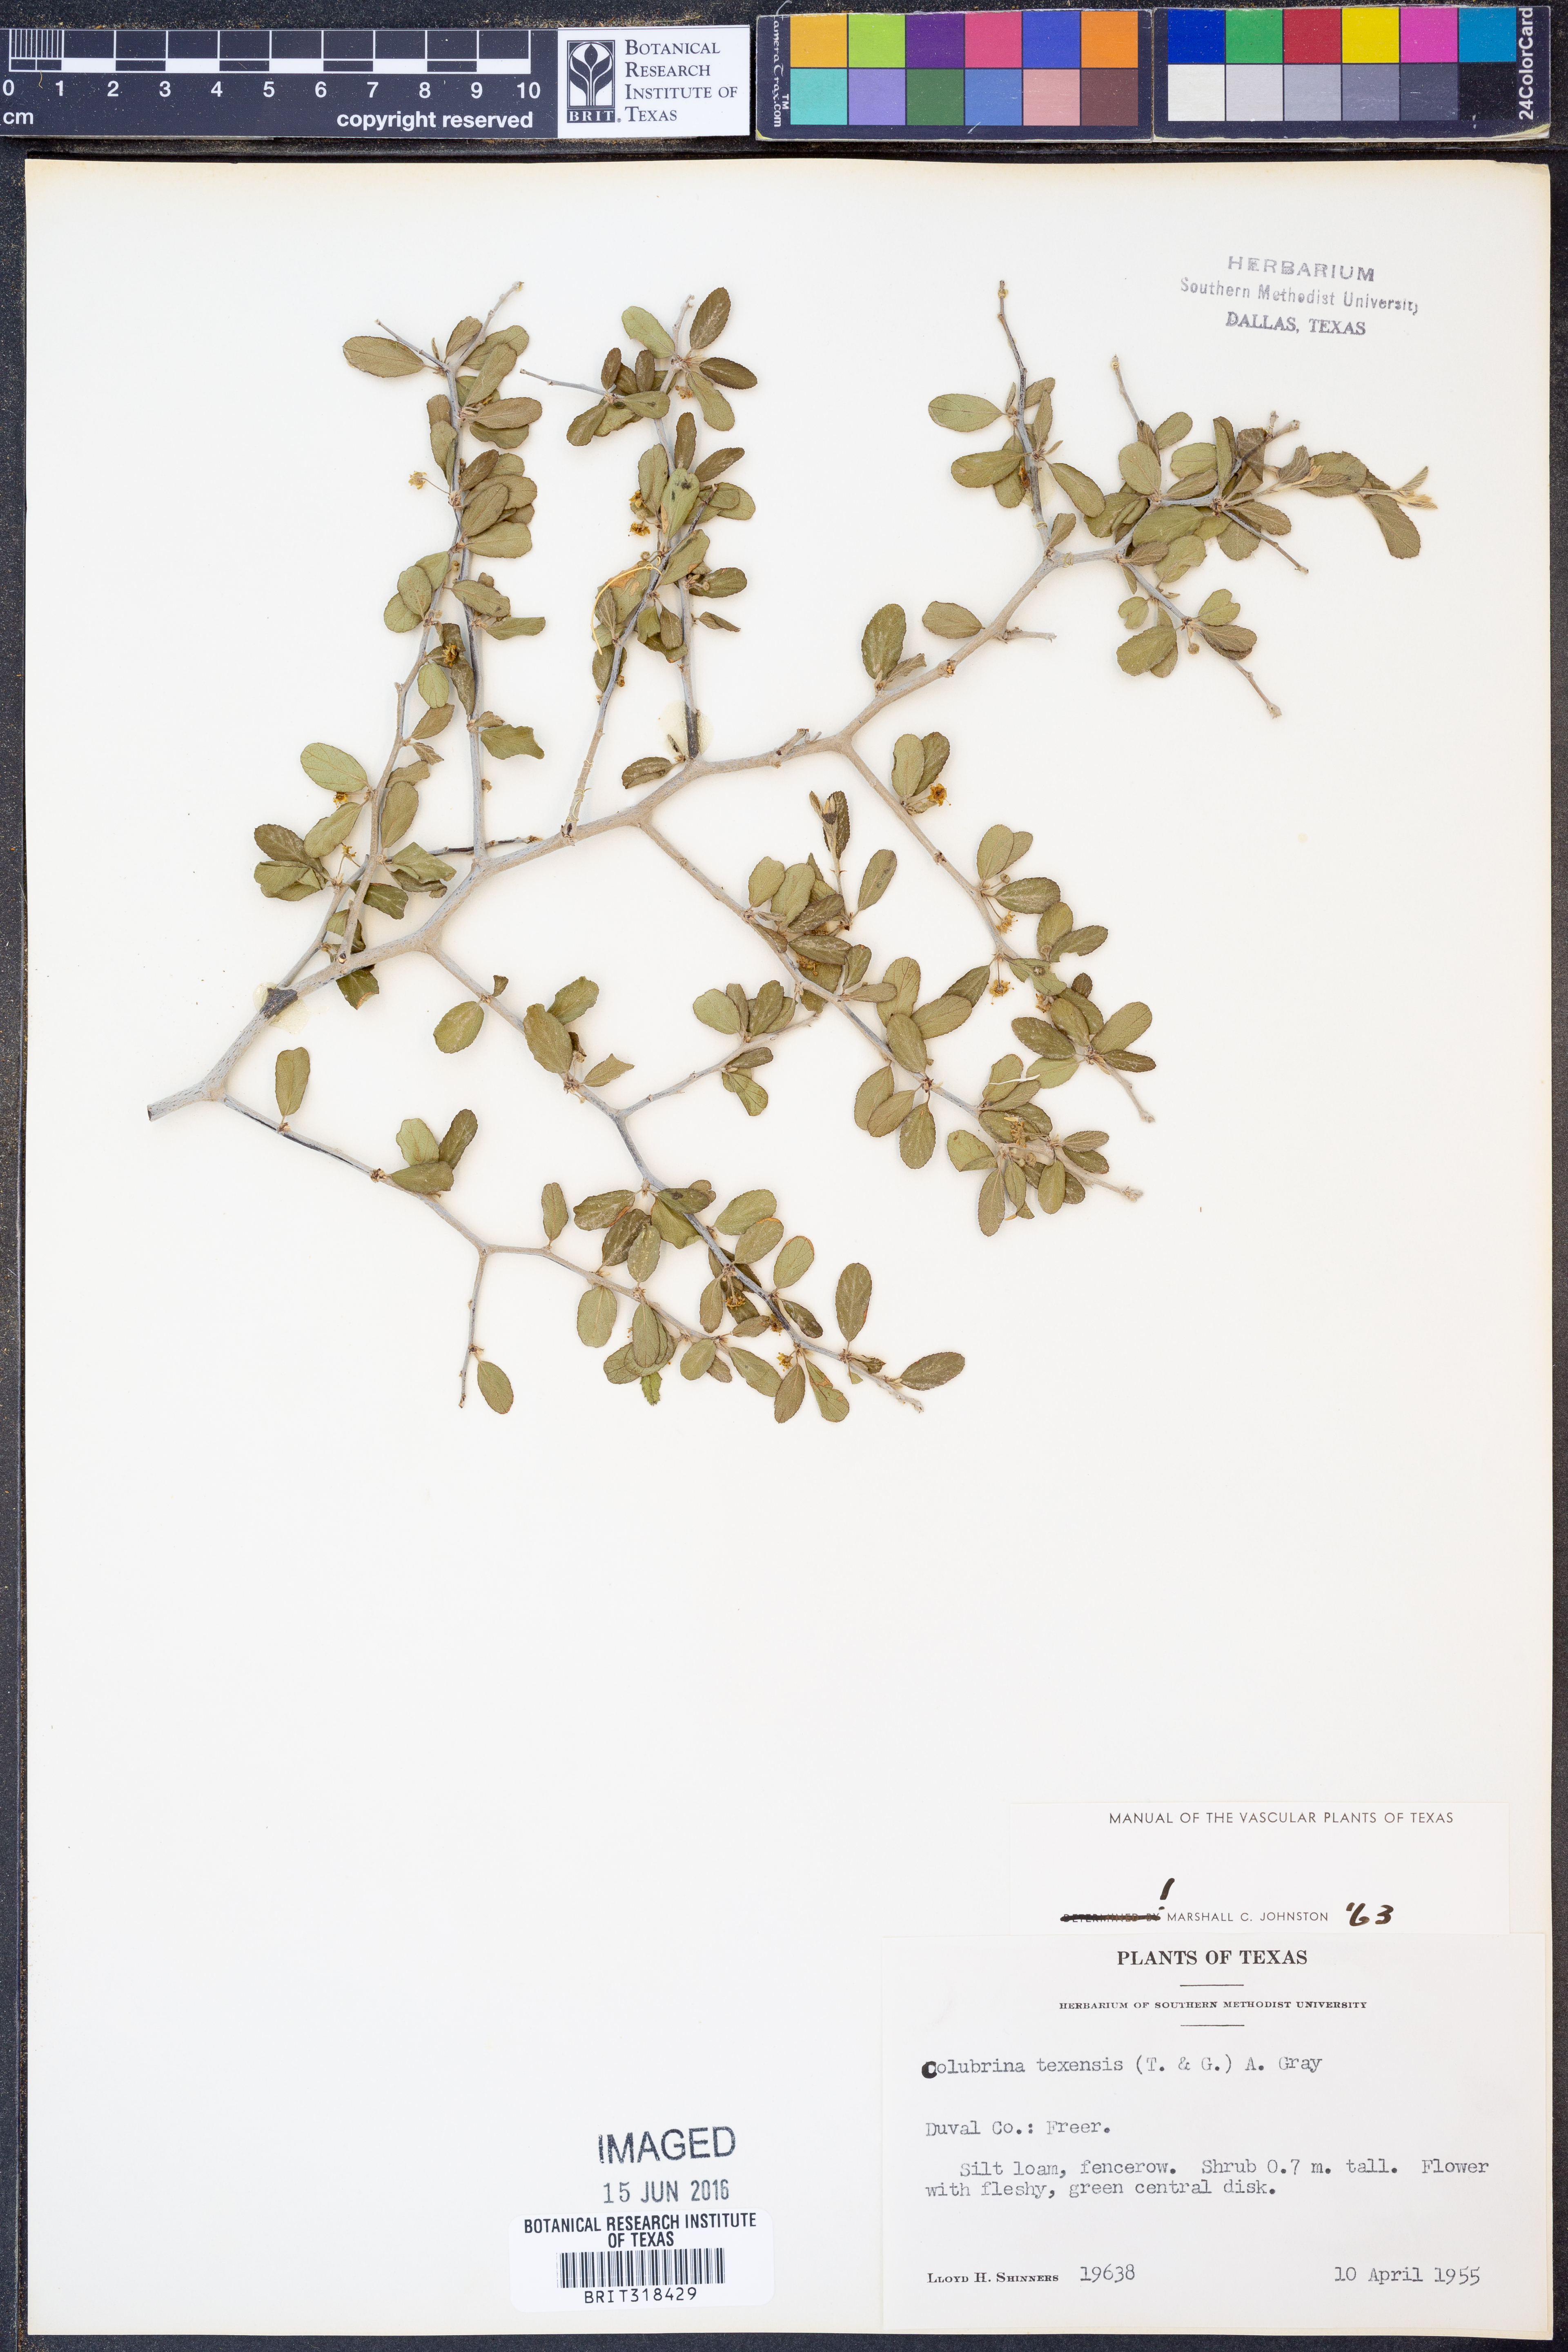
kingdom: Plantae
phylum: Tracheophyta
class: Magnoliopsida
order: Rosales
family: Rhamnaceae
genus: Colubrina
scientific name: Colubrina texensis
